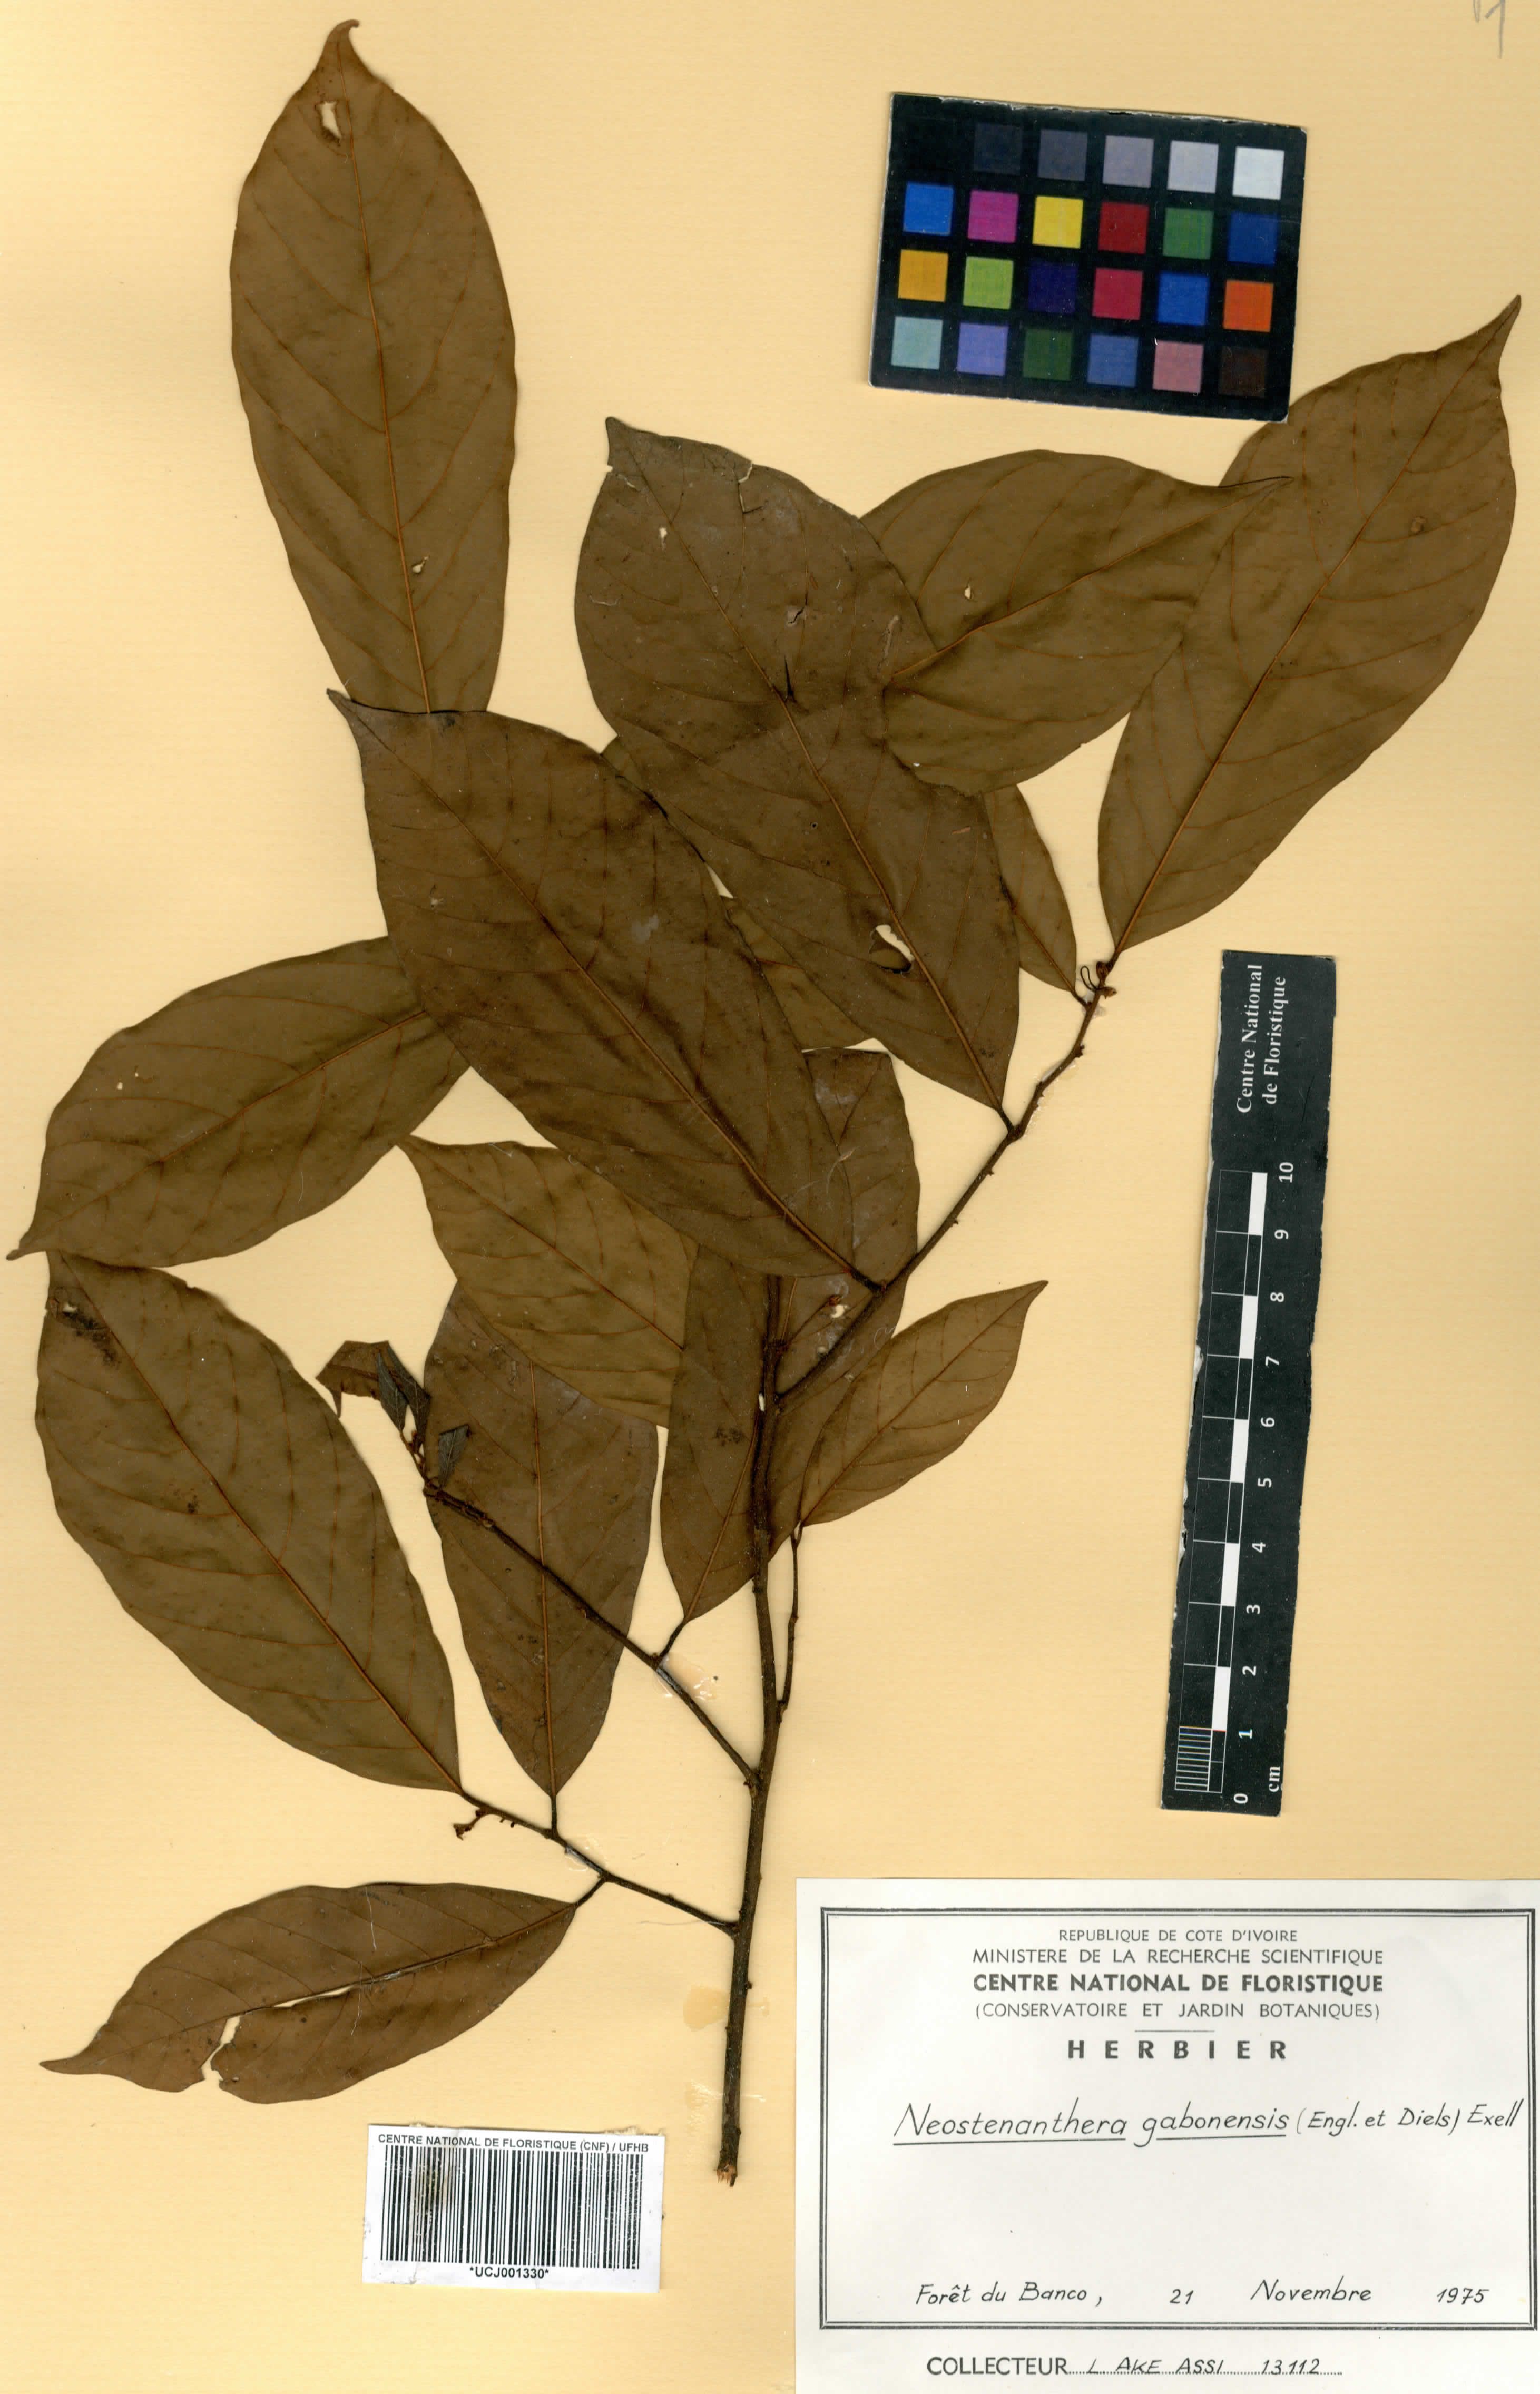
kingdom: Plantae
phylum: Tracheophyta
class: Magnoliopsida
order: Magnoliales
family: Annonaceae
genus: Neostenanthera
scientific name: Neostenanthera gabonensis
